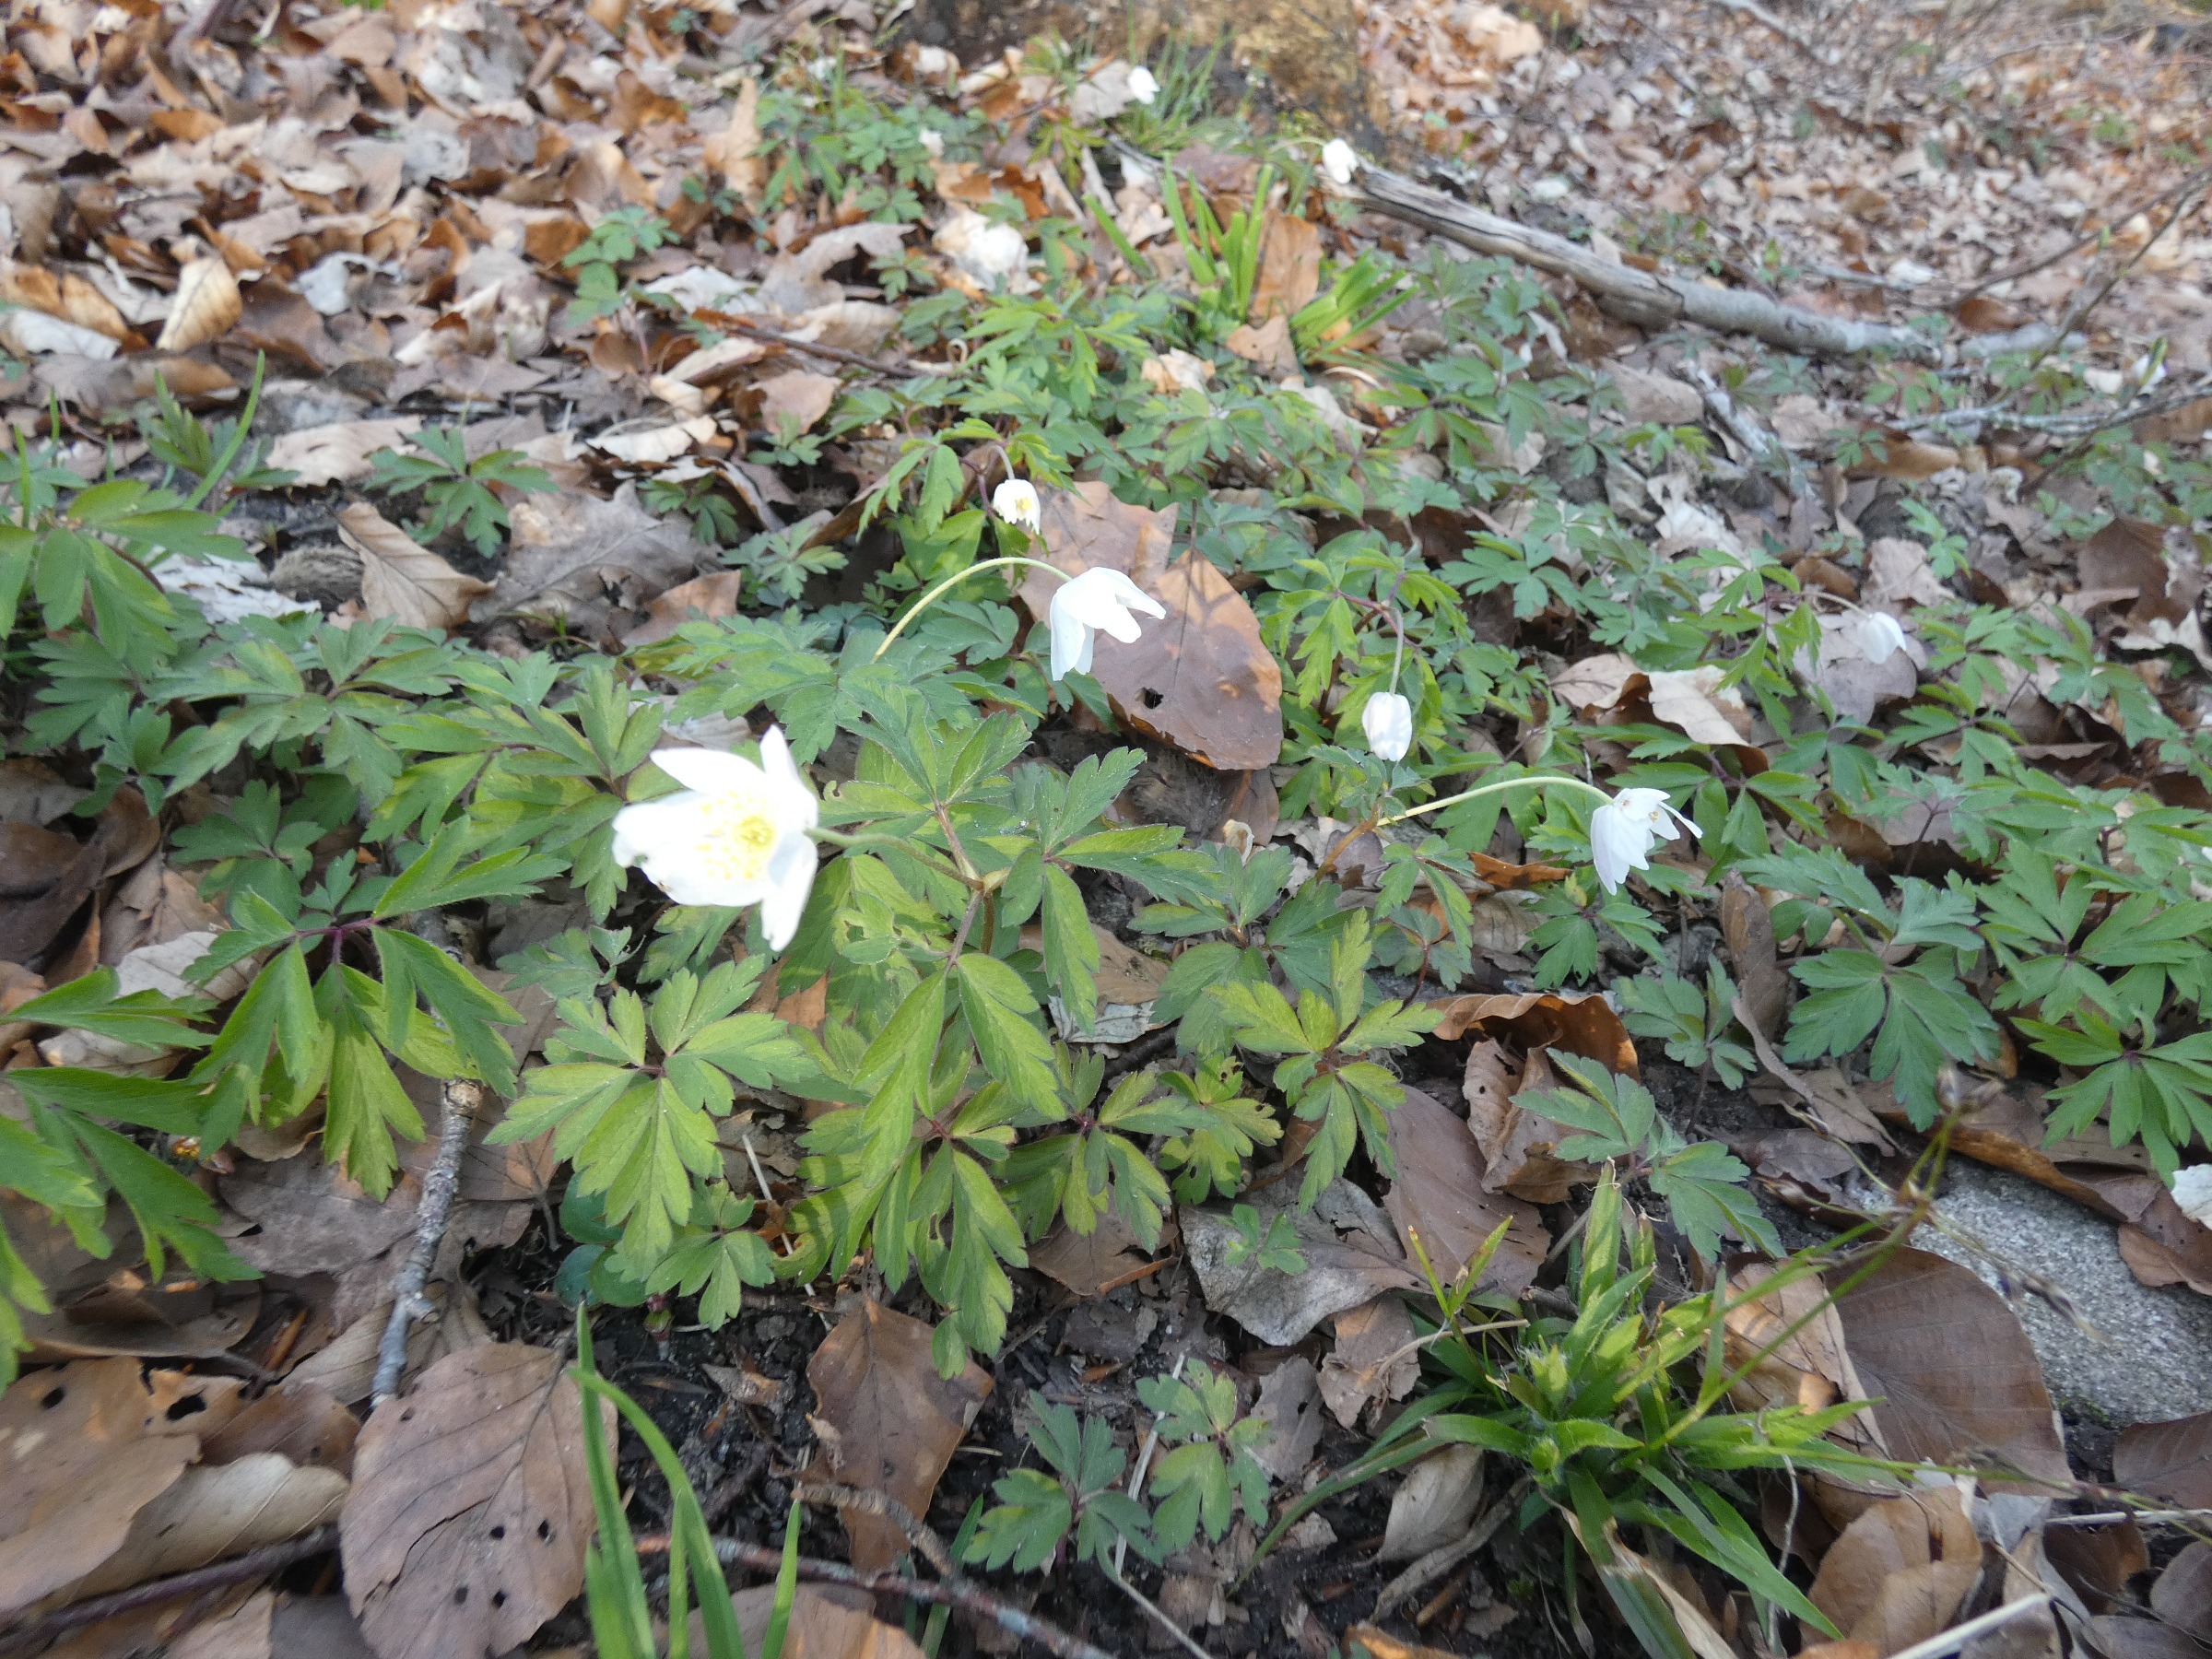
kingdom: Plantae
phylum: Tracheophyta
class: Magnoliopsida
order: Ranunculales
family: Ranunculaceae
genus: Anemone
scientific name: Anemone nemorosa
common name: Hvid anemone
